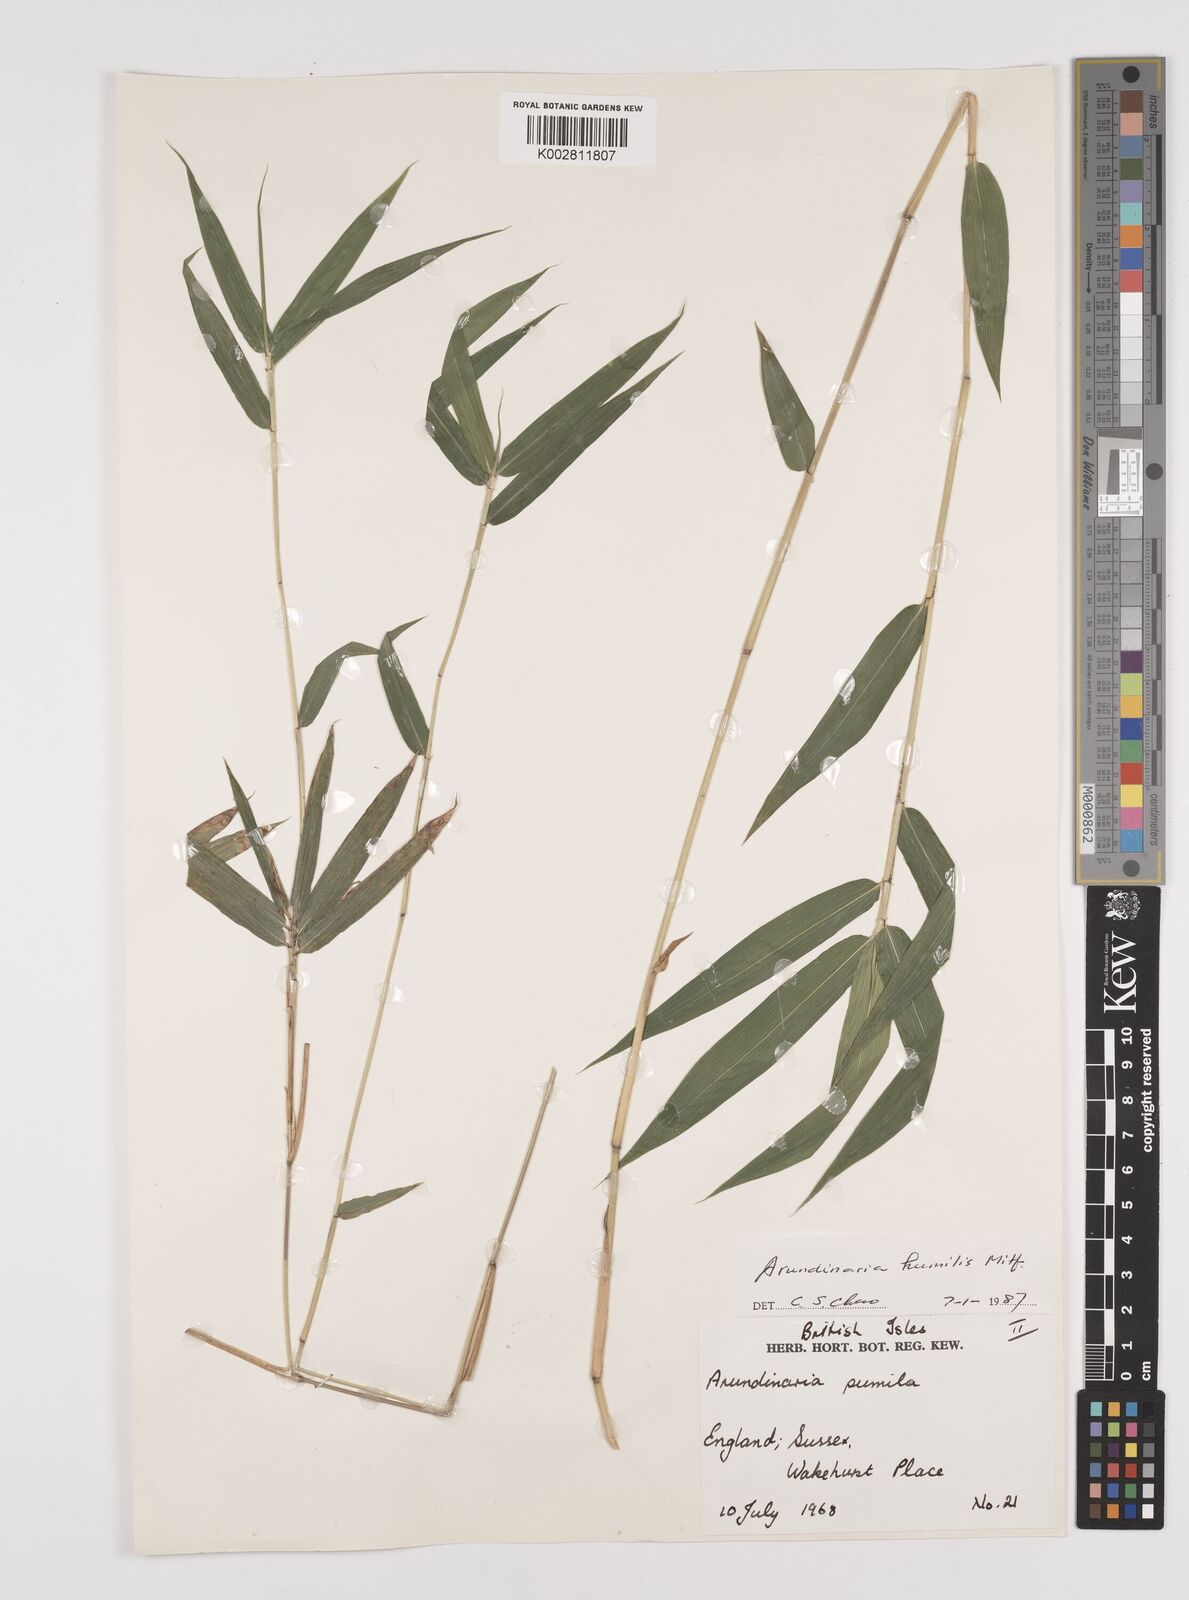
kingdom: Plantae
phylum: Tracheophyta
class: Liliopsida
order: Poales
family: Poaceae
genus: Pseudosasa
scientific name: Pseudosasa humilis
